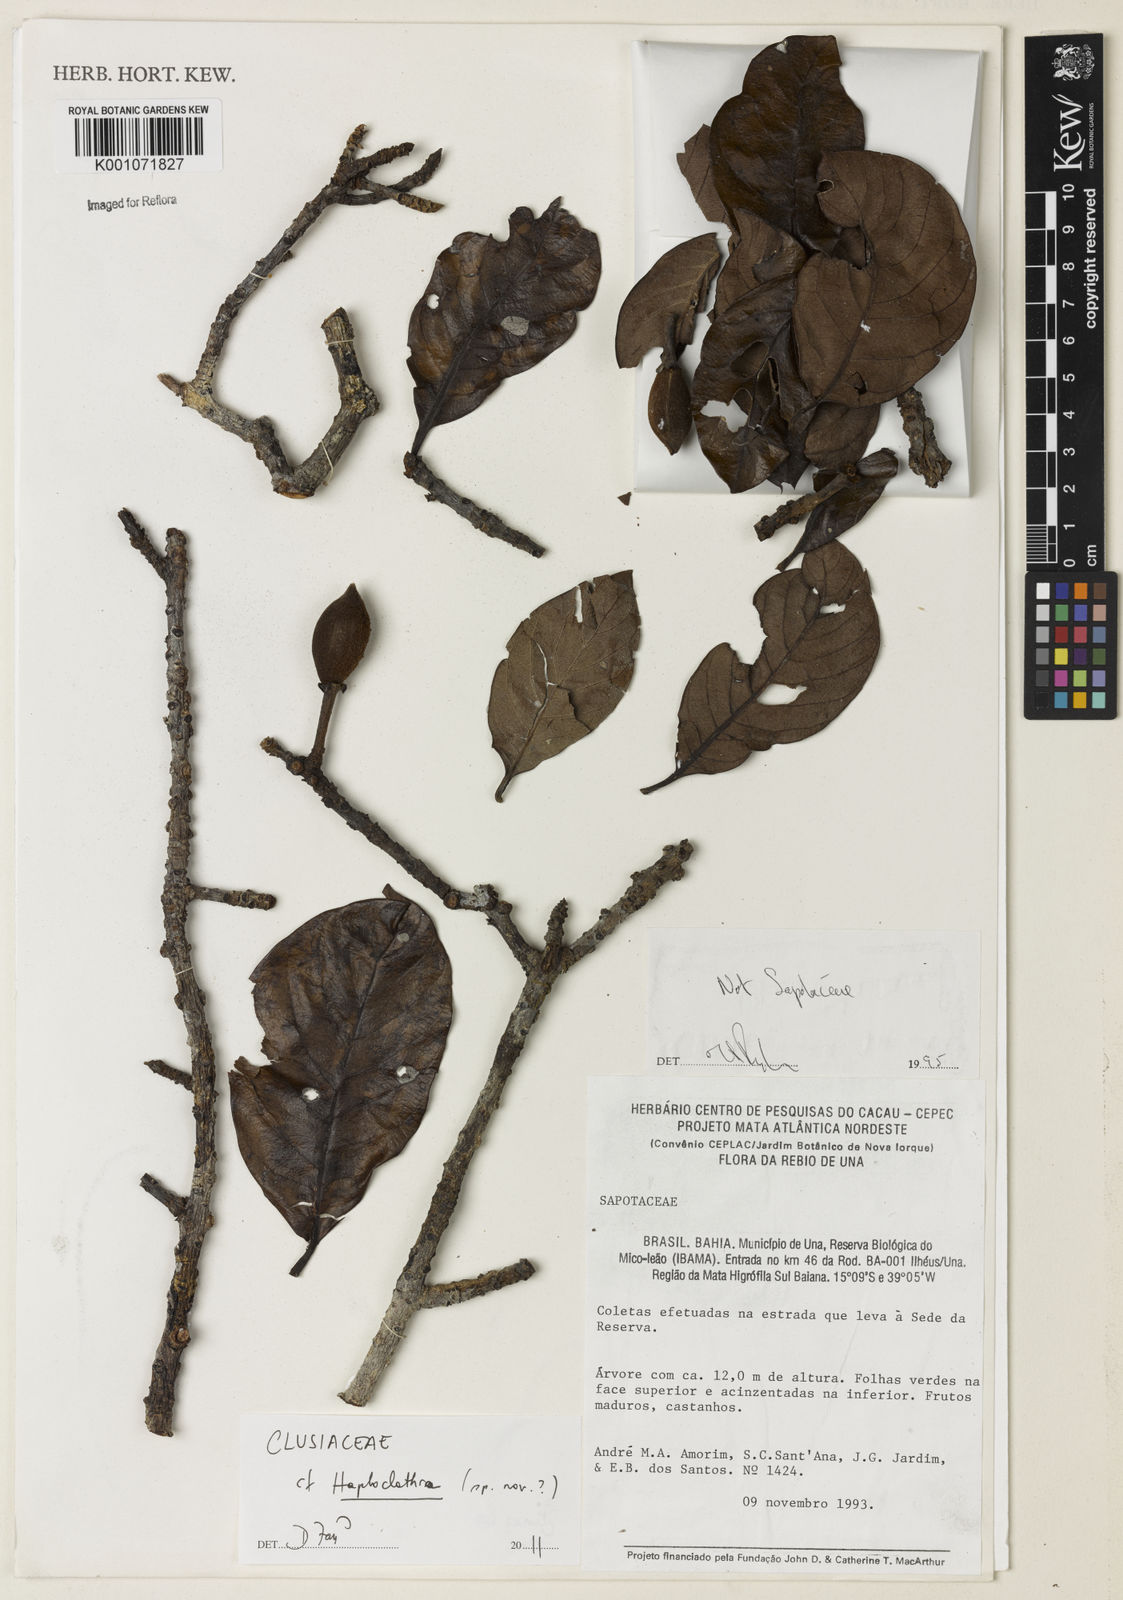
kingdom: Plantae
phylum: Tracheophyta
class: Magnoliopsida
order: Malpighiales
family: Calophyllaceae
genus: Haploclathra
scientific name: Haploclathra
